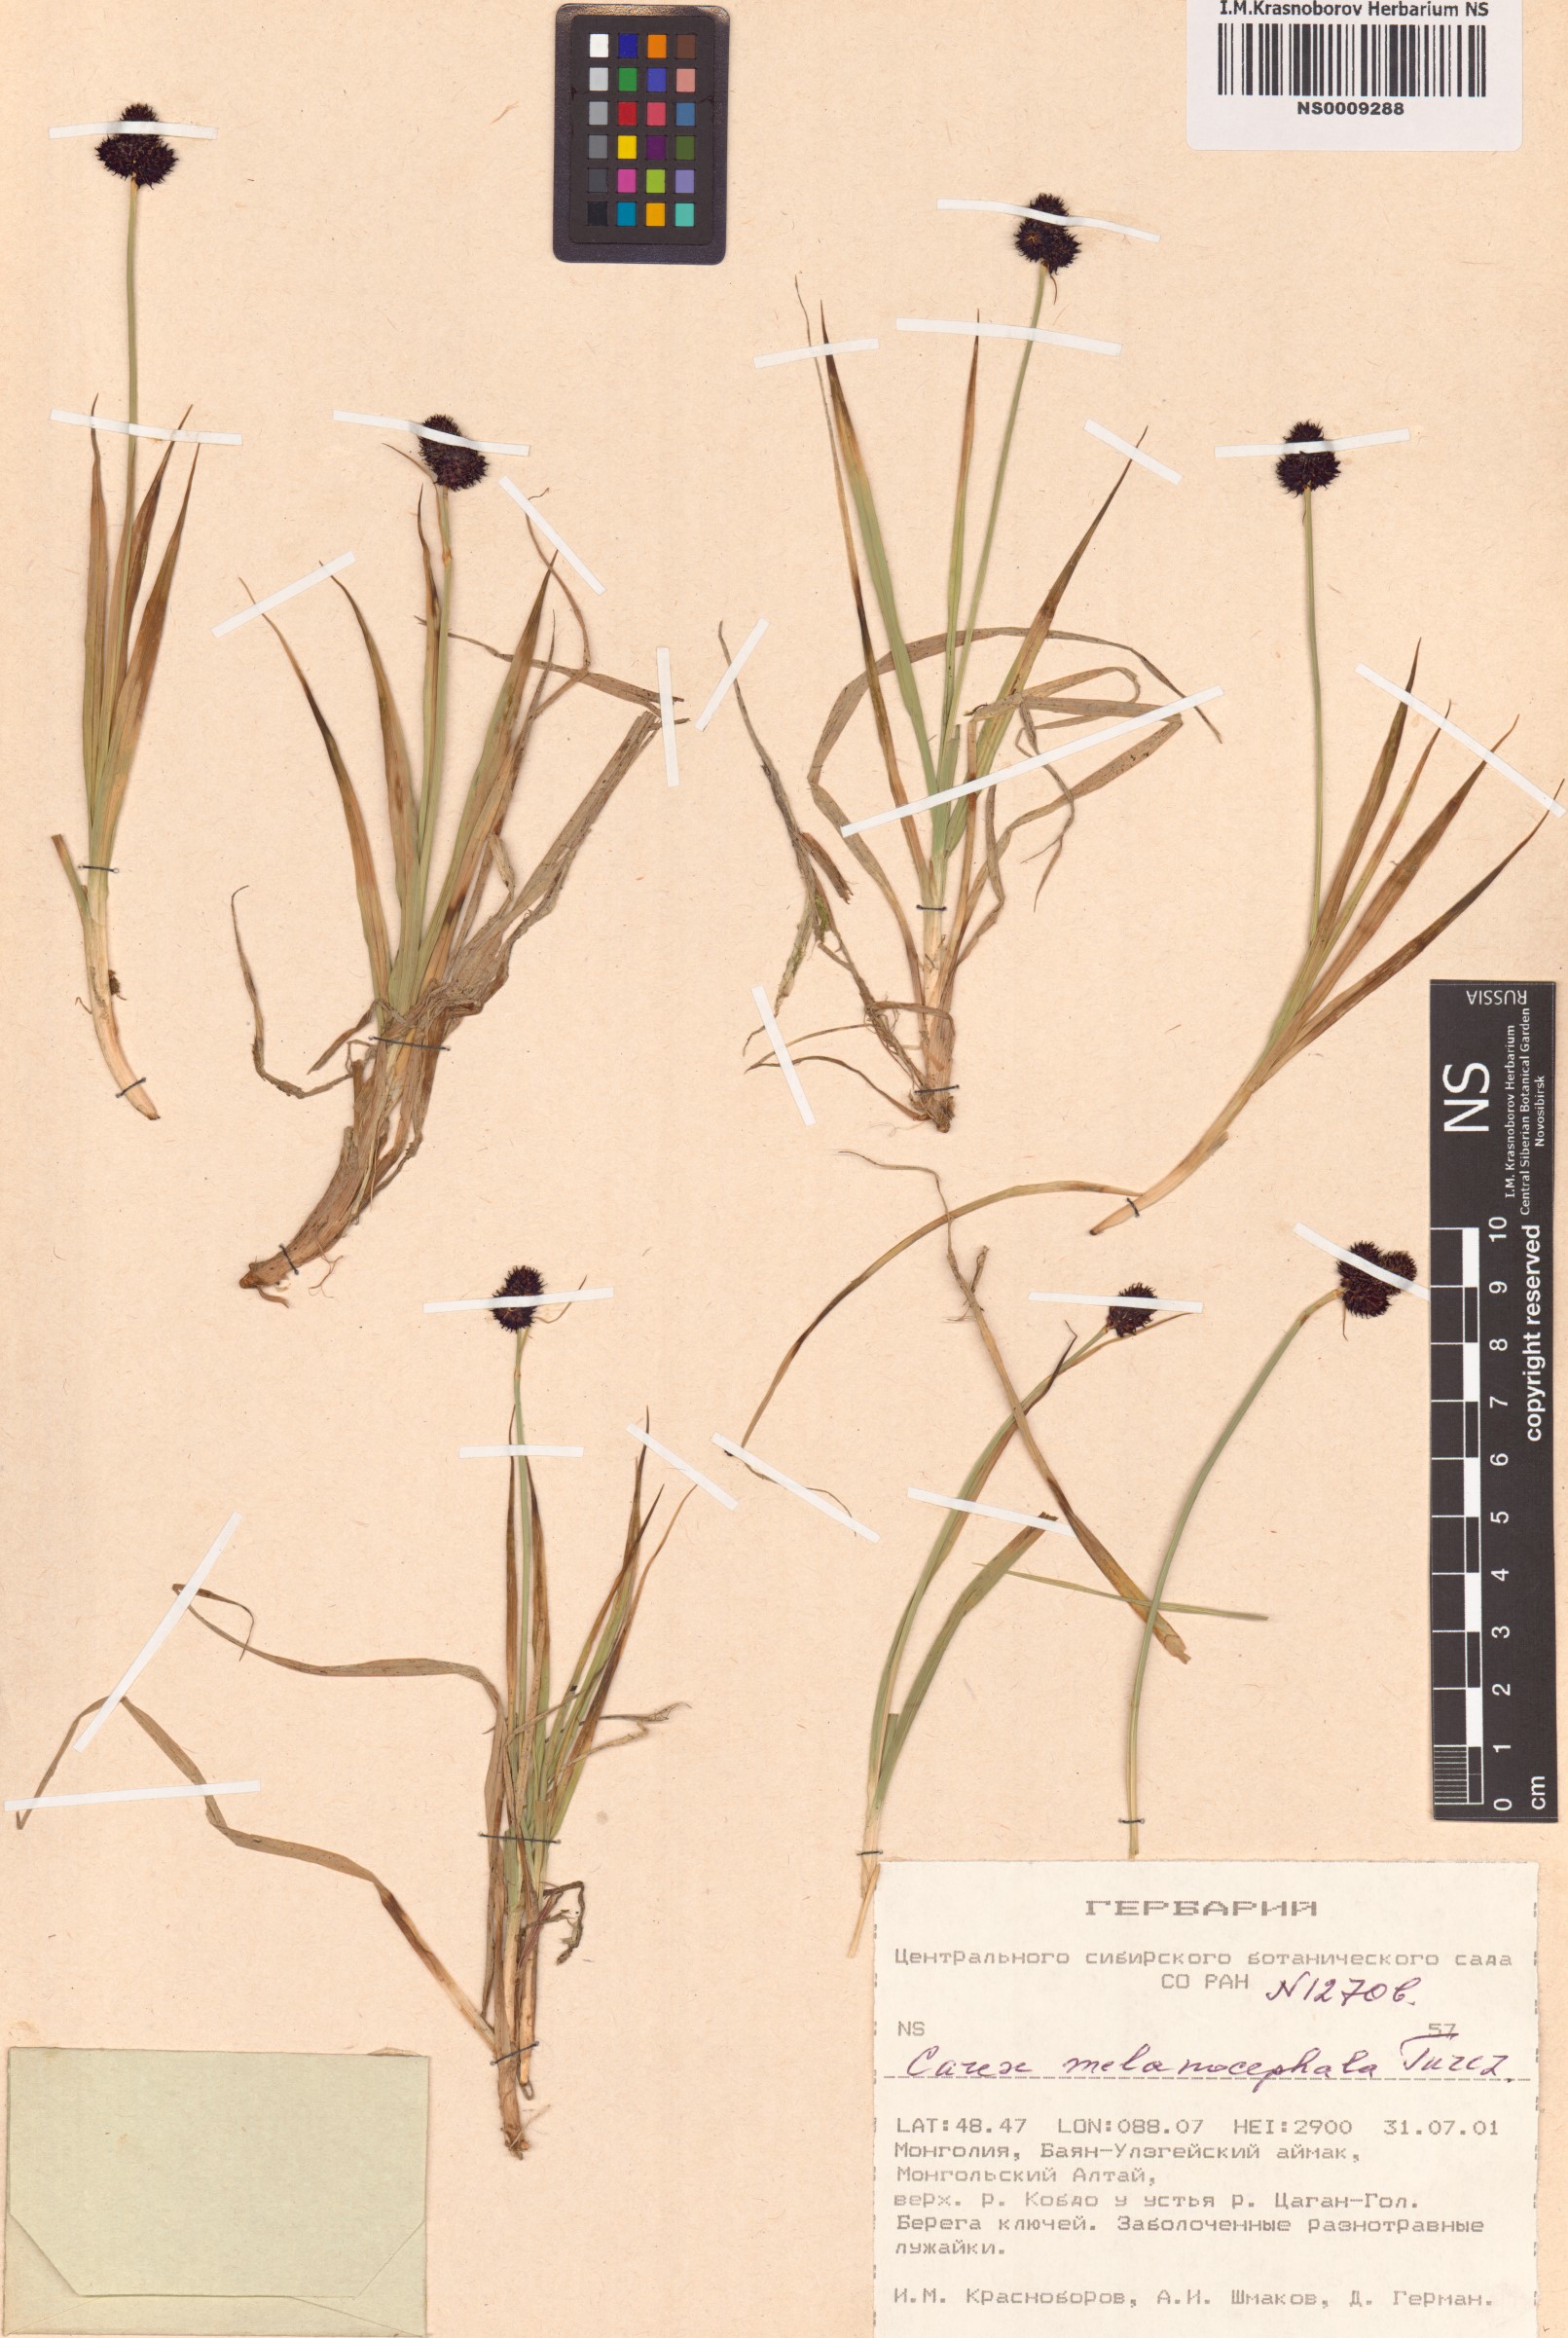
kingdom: Plantae
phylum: Tracheophyta
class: Liliopsida
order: Poales
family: Cyperaceae
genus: Carex
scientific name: Carex melanocephala
